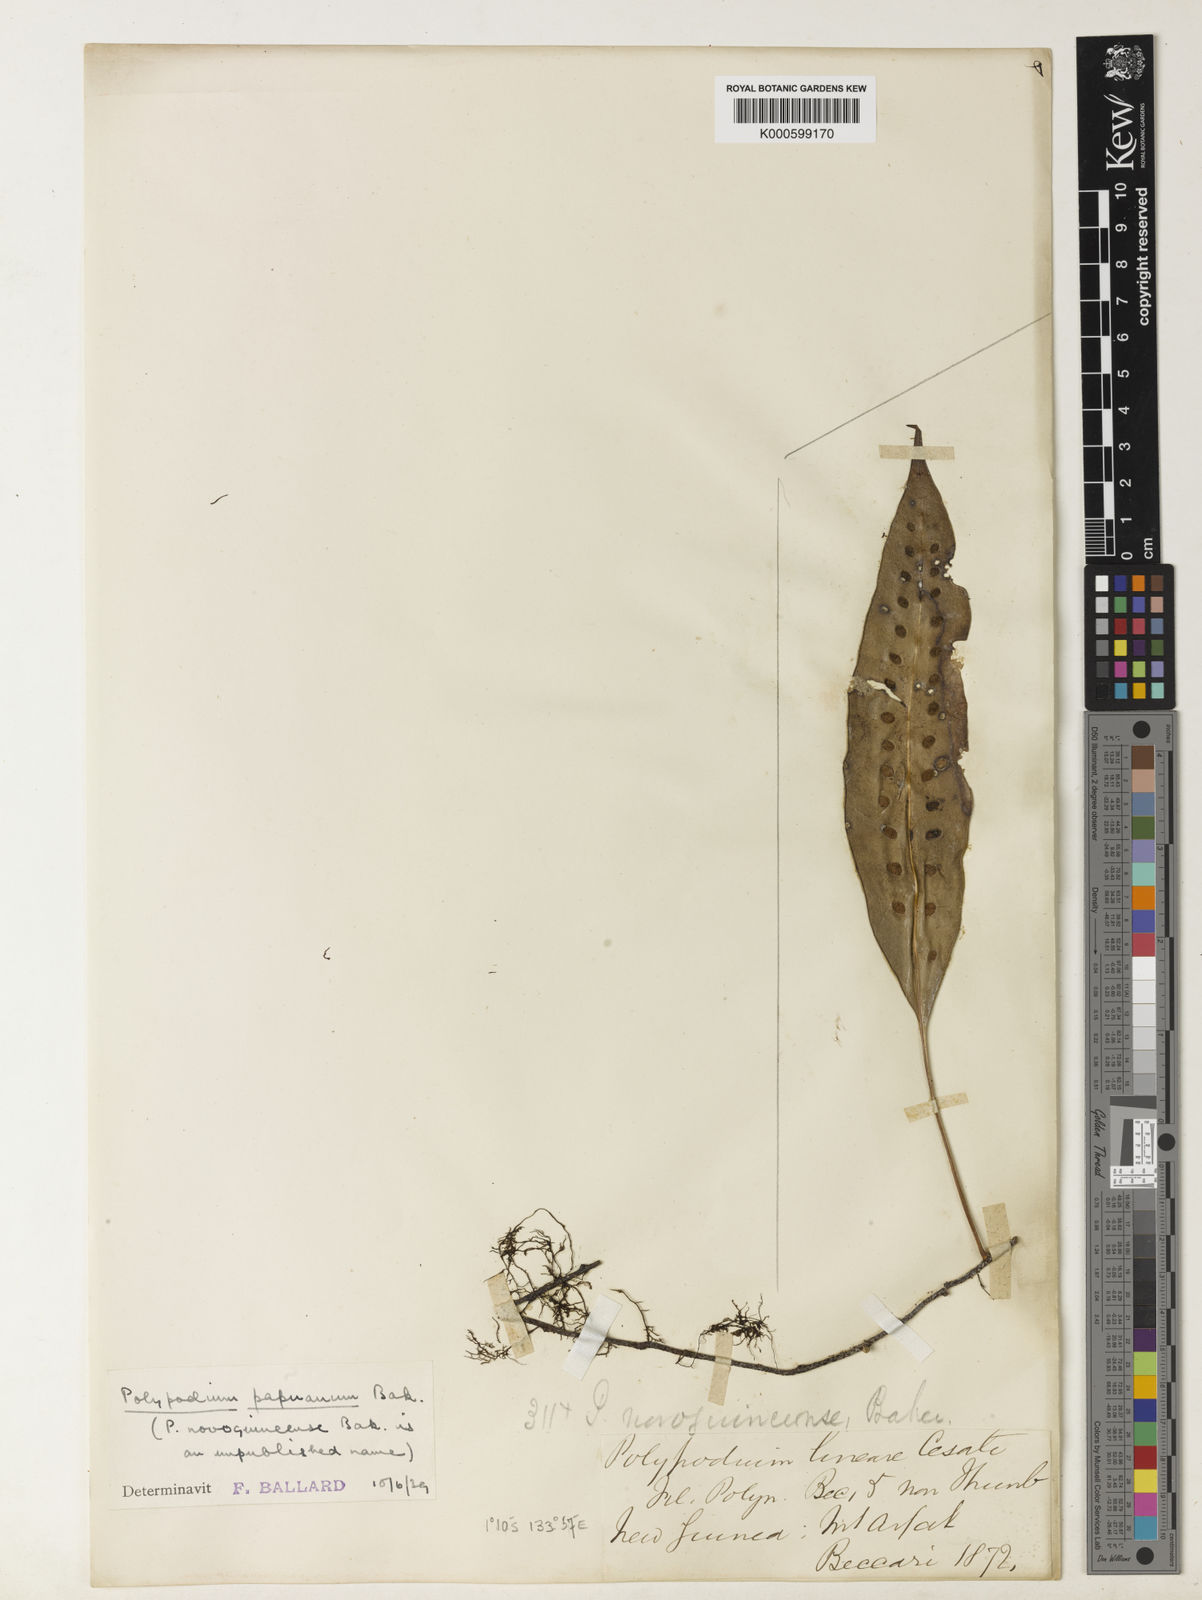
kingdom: Plantae
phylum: Tracheophyta
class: Polypodiopsida
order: Polypodiales
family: Polypodiaceae
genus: Microsorum
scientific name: Microsorum papuanum
